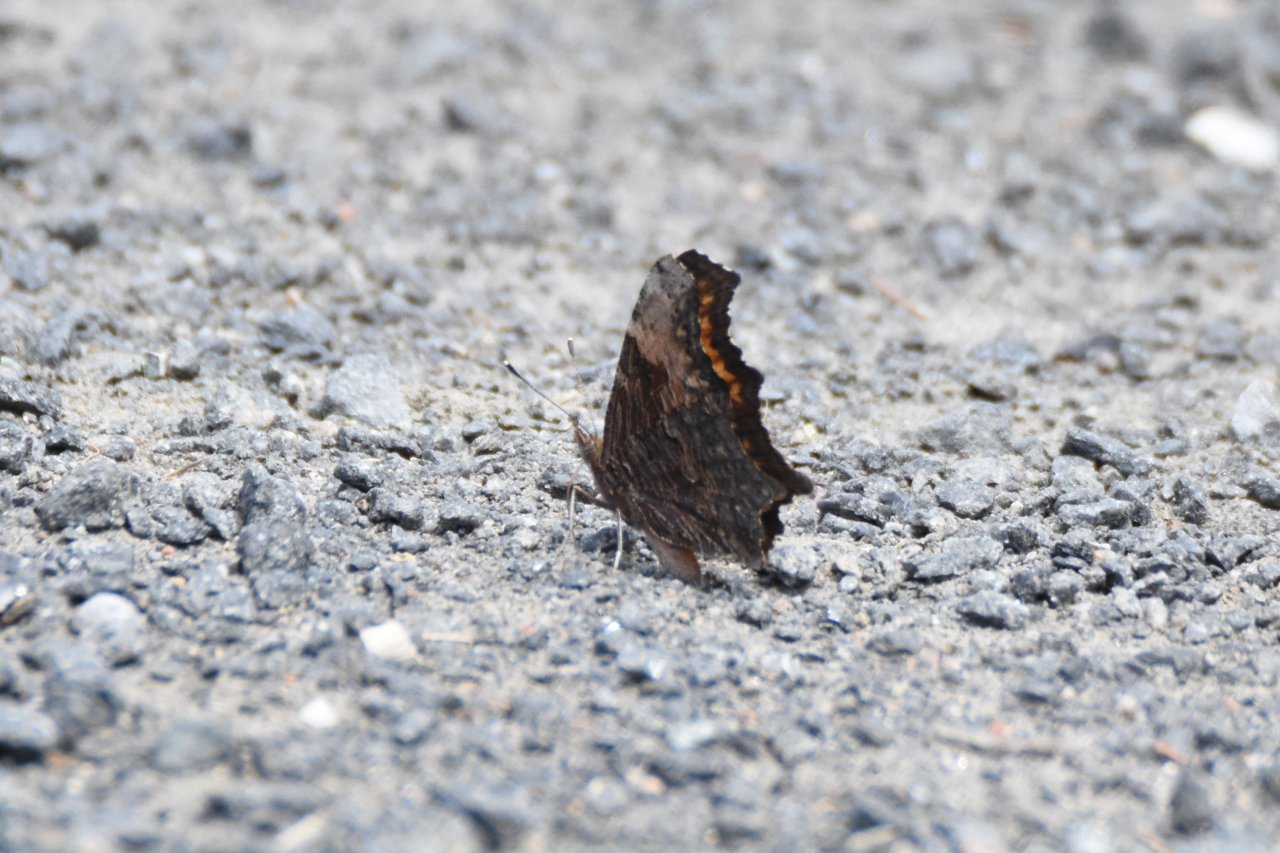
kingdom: Animalia
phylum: Arthropoda
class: Insecta
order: Lepidoptera
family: Nymphalidae
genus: Polygonia
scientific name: Polygonia progne
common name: Gray Comma
